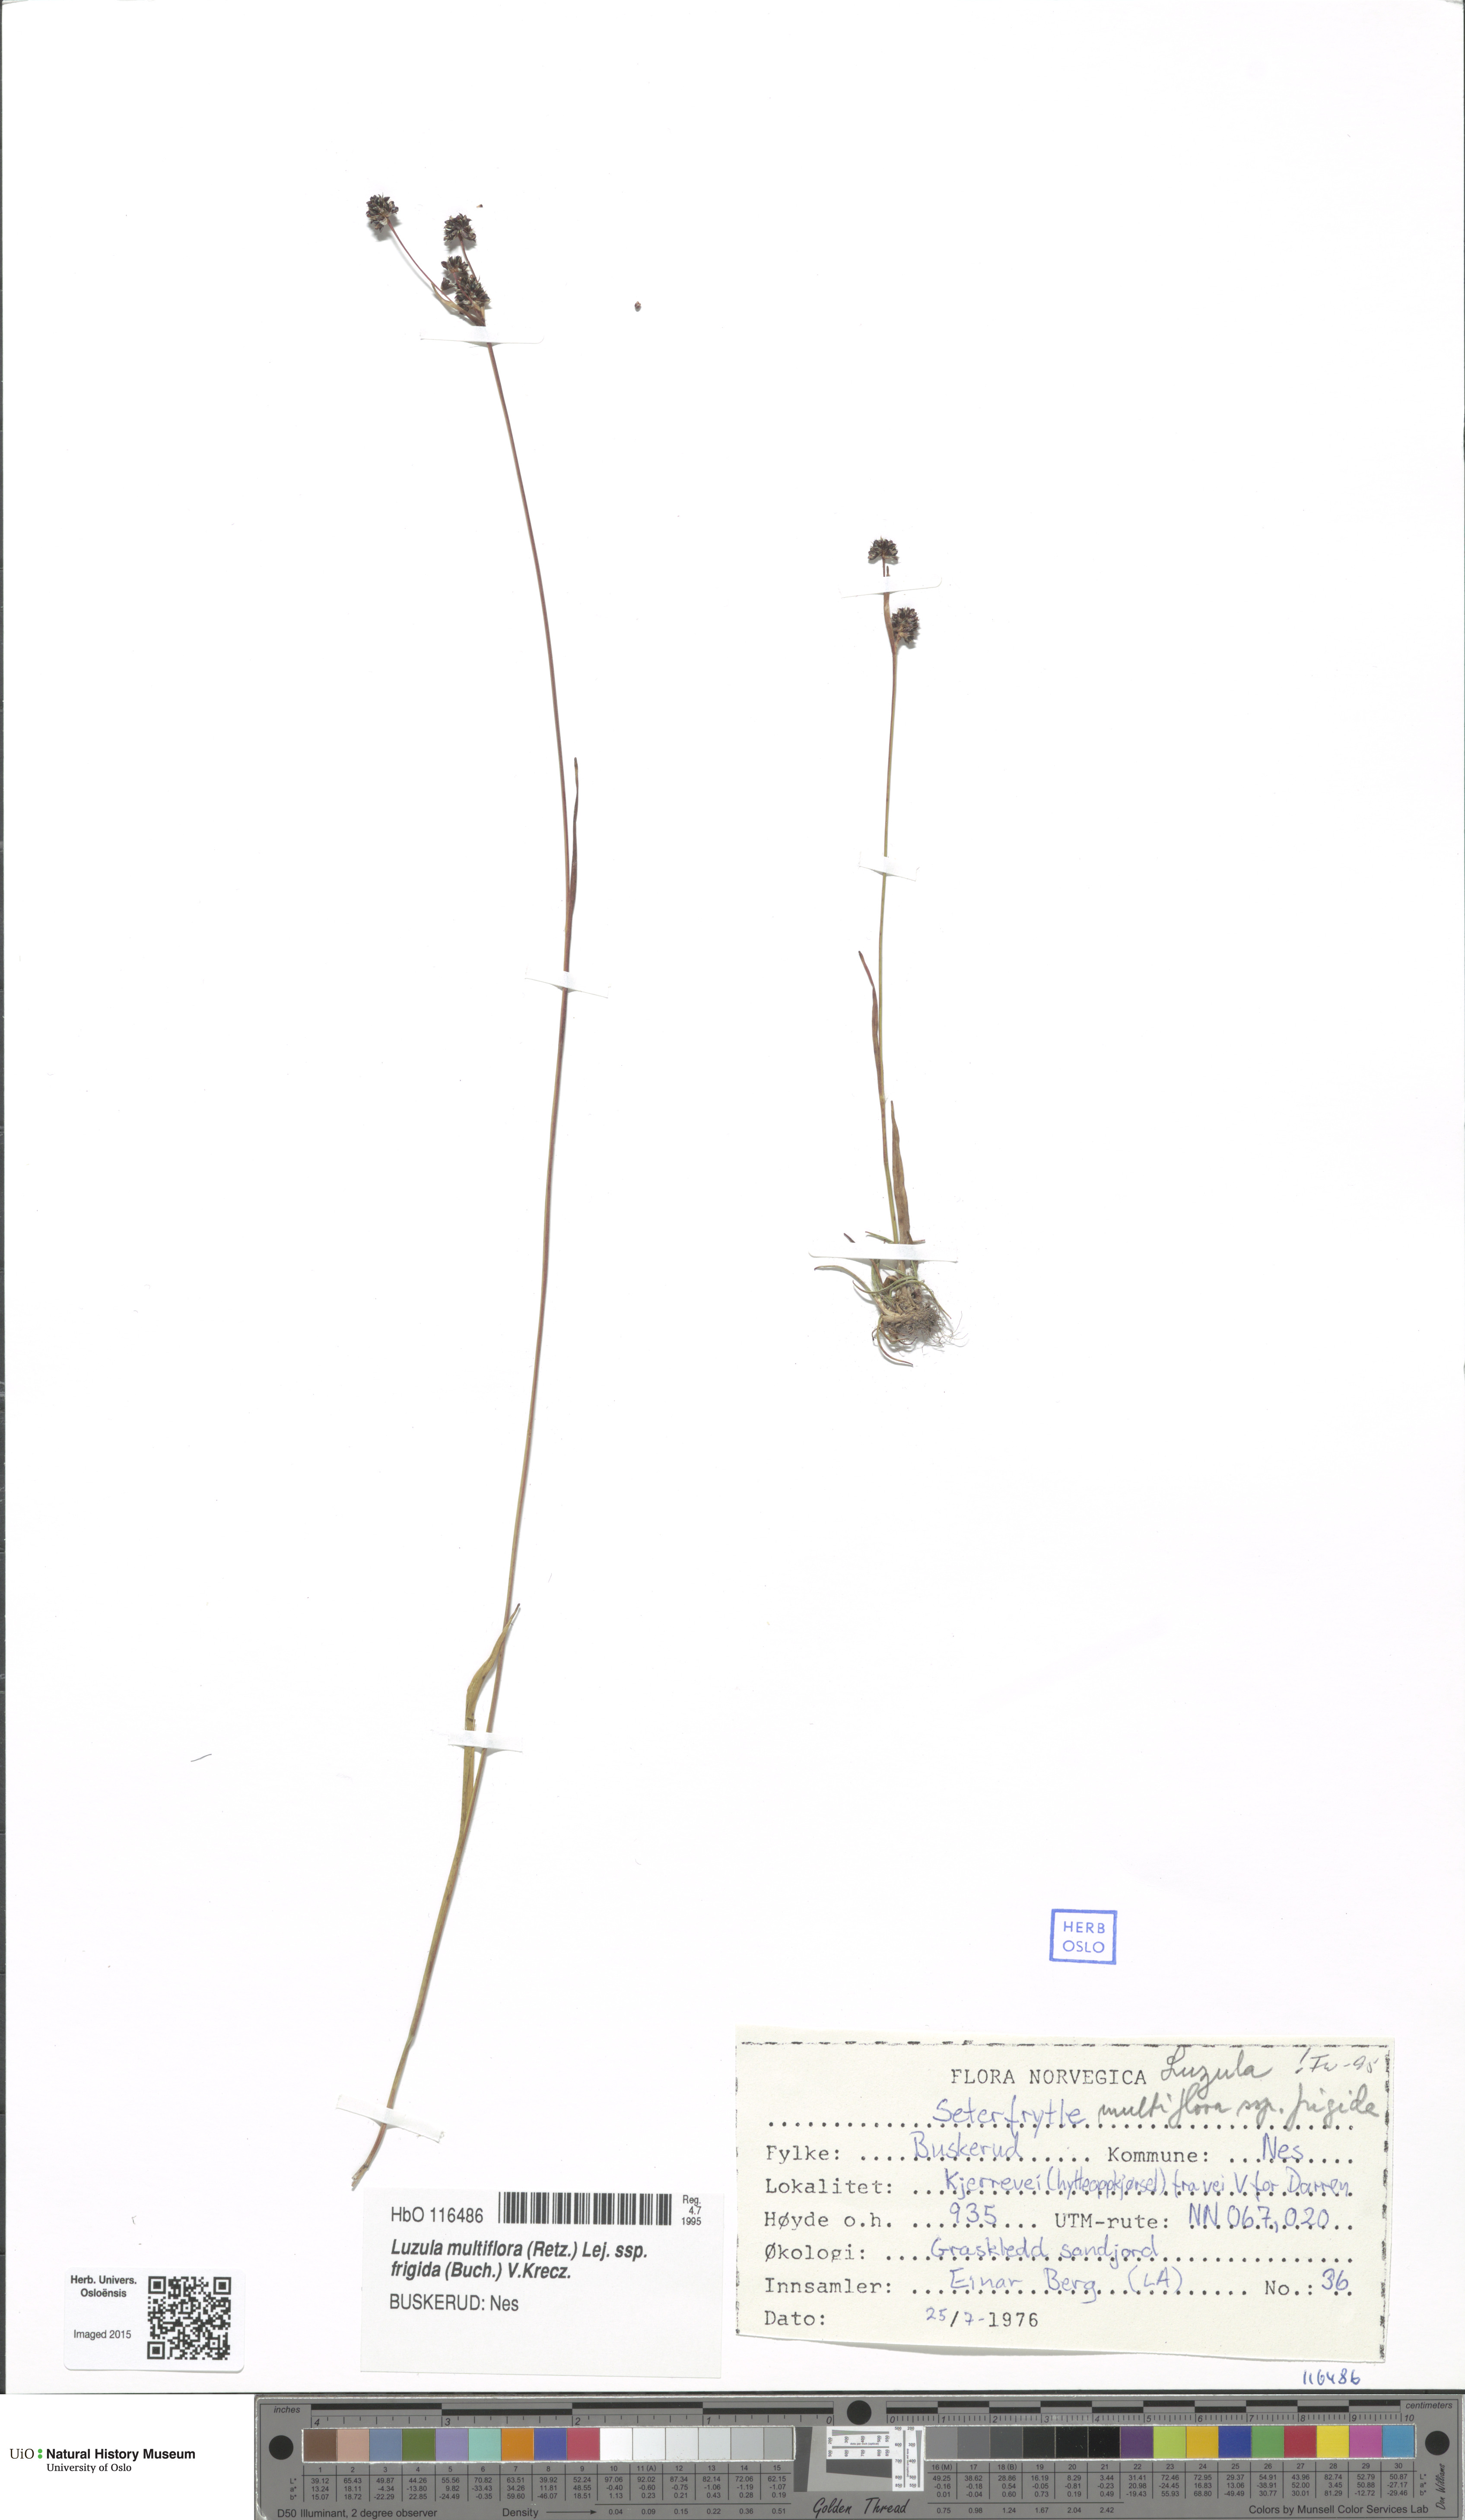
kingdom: Plantae
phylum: Tracheophyta
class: Liliopsida
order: Poales
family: Juncaceae
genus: Luzula
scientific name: Luzula multiflora
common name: Heath wood-rush
